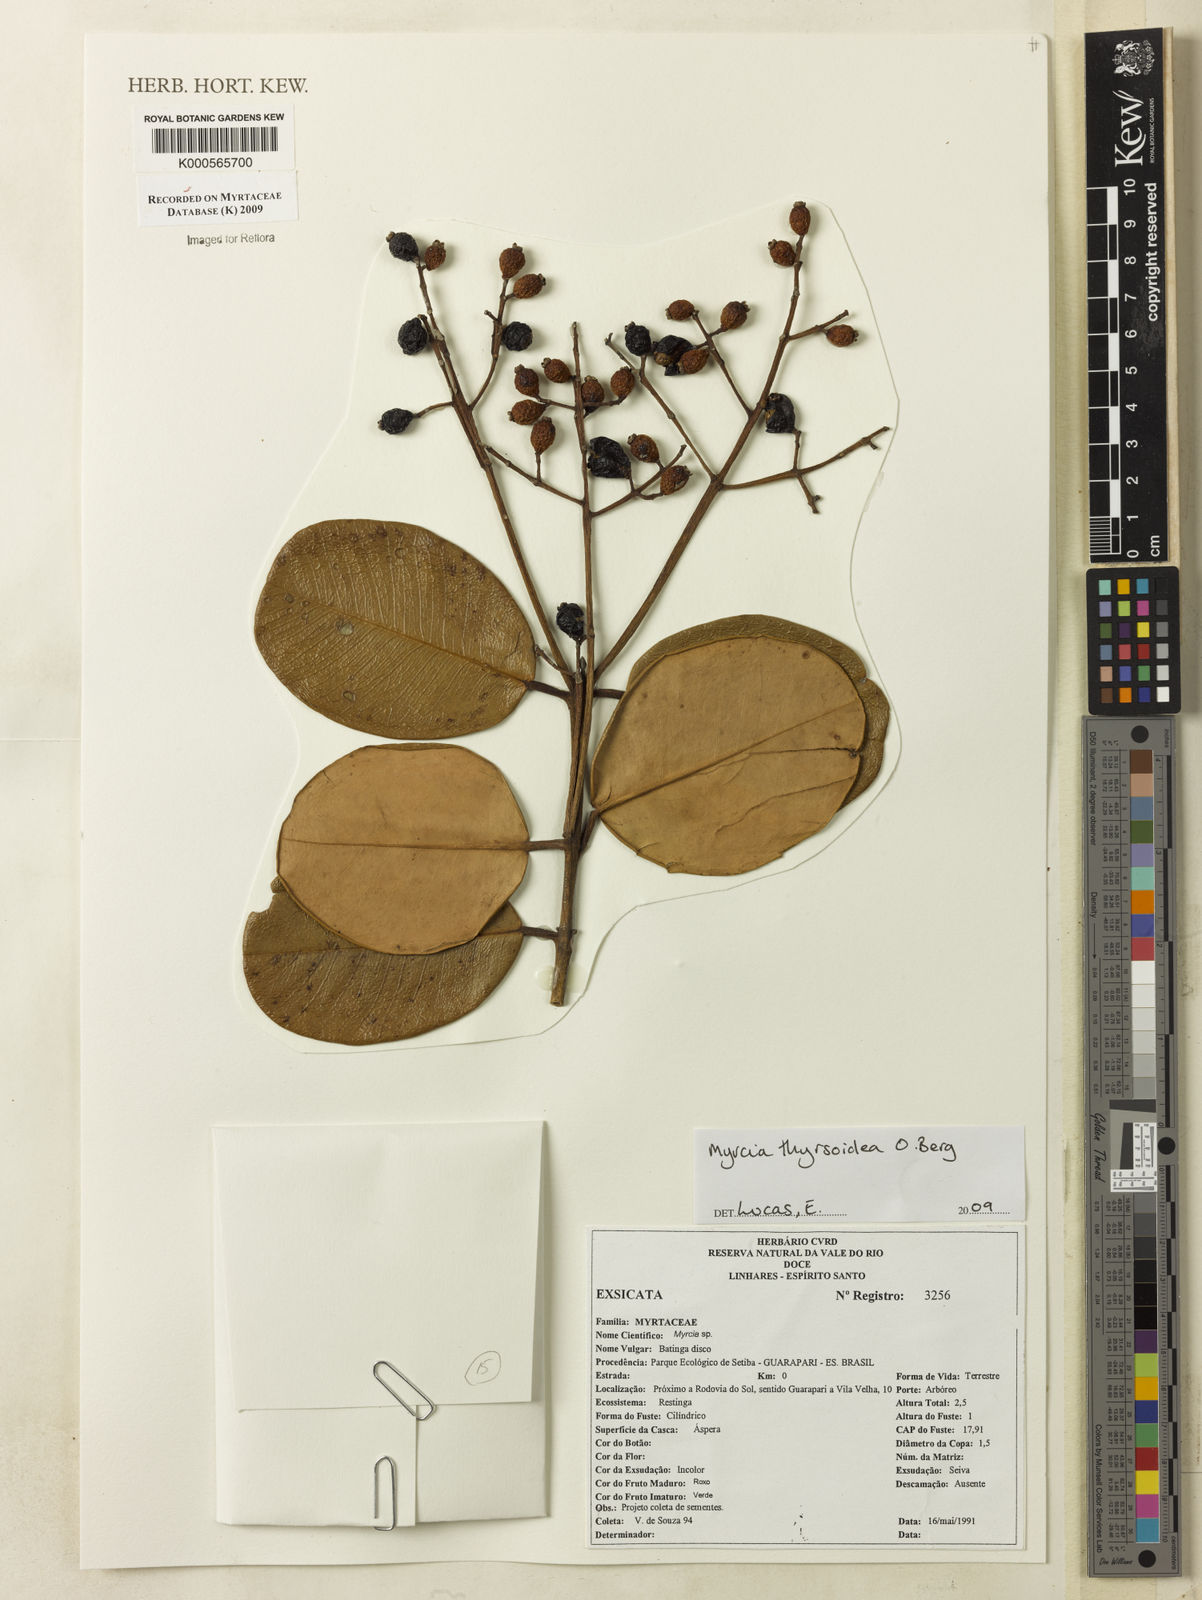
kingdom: Plantae
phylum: Tracheophyta
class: Magnoliopsida
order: Myrtales
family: Myrtaceae
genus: Myrcia
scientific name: Myrcia thyrsoidea
